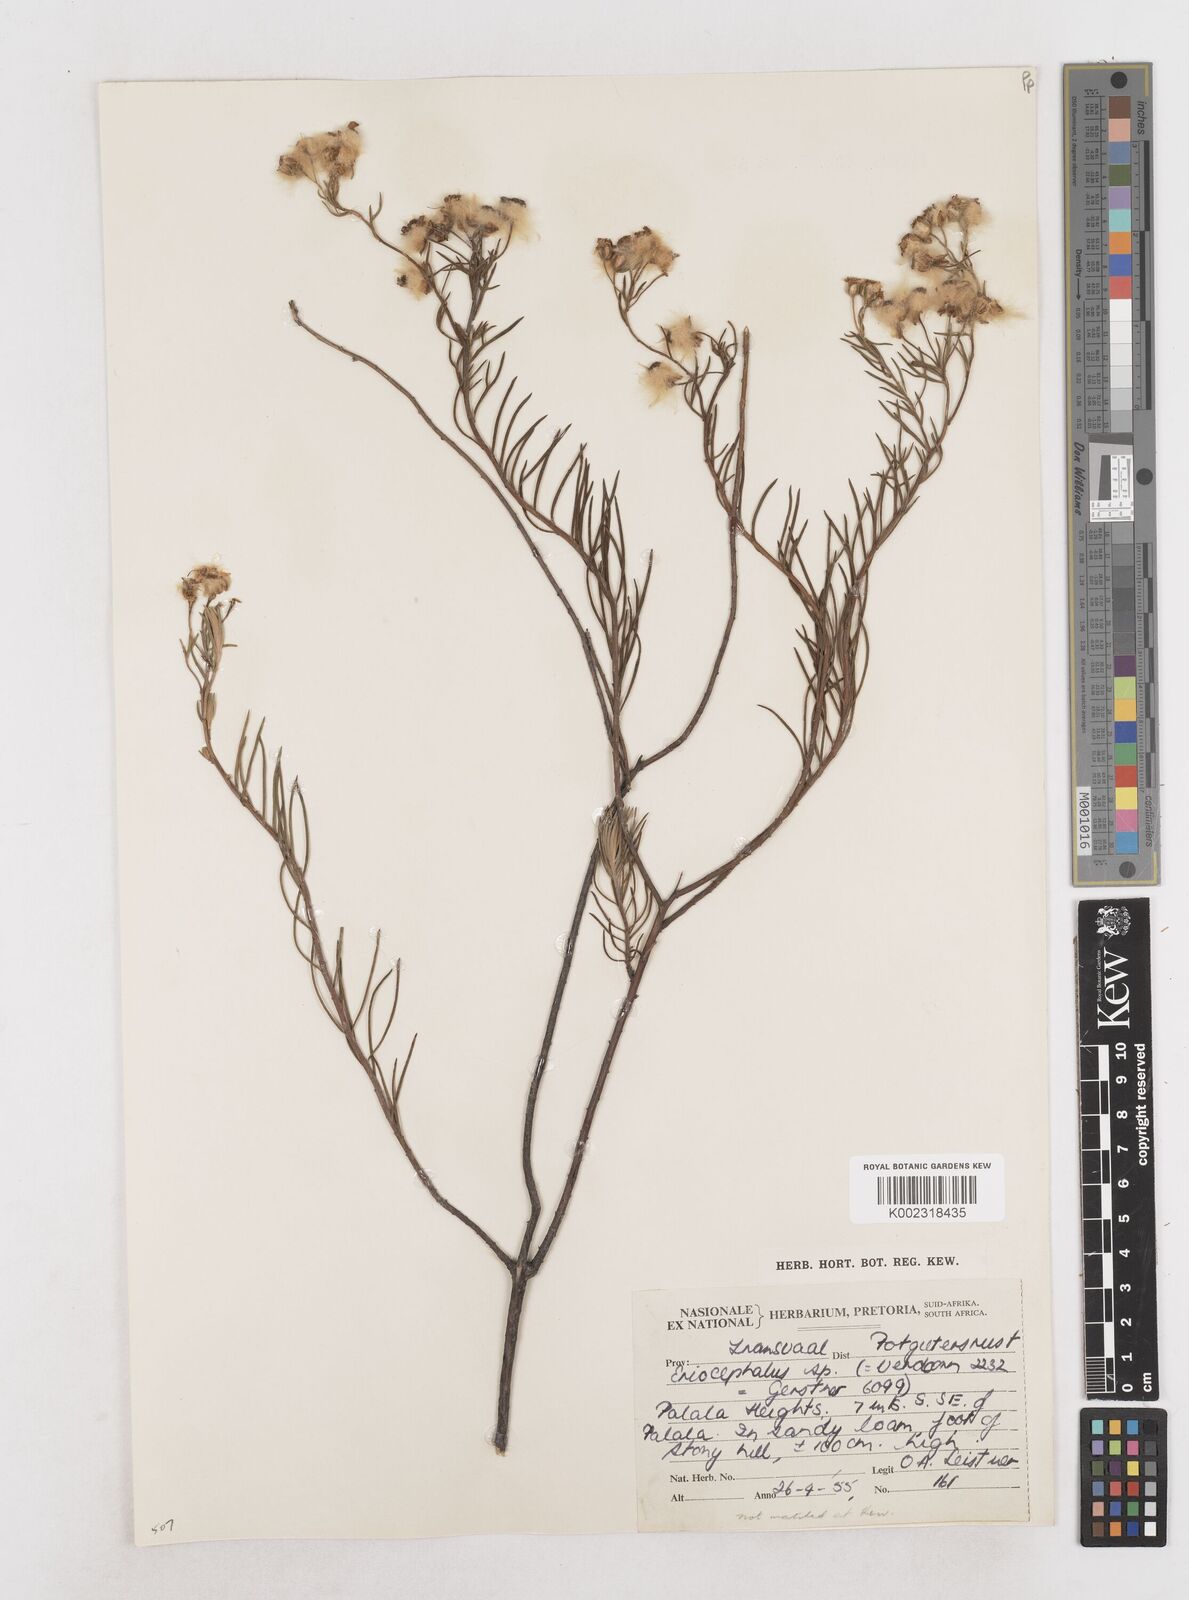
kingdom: Plantae
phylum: Tracheophyta
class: Magnoliopsida
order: Asterales
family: Asteraceae
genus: Eriocephalus
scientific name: Eriocephalus
